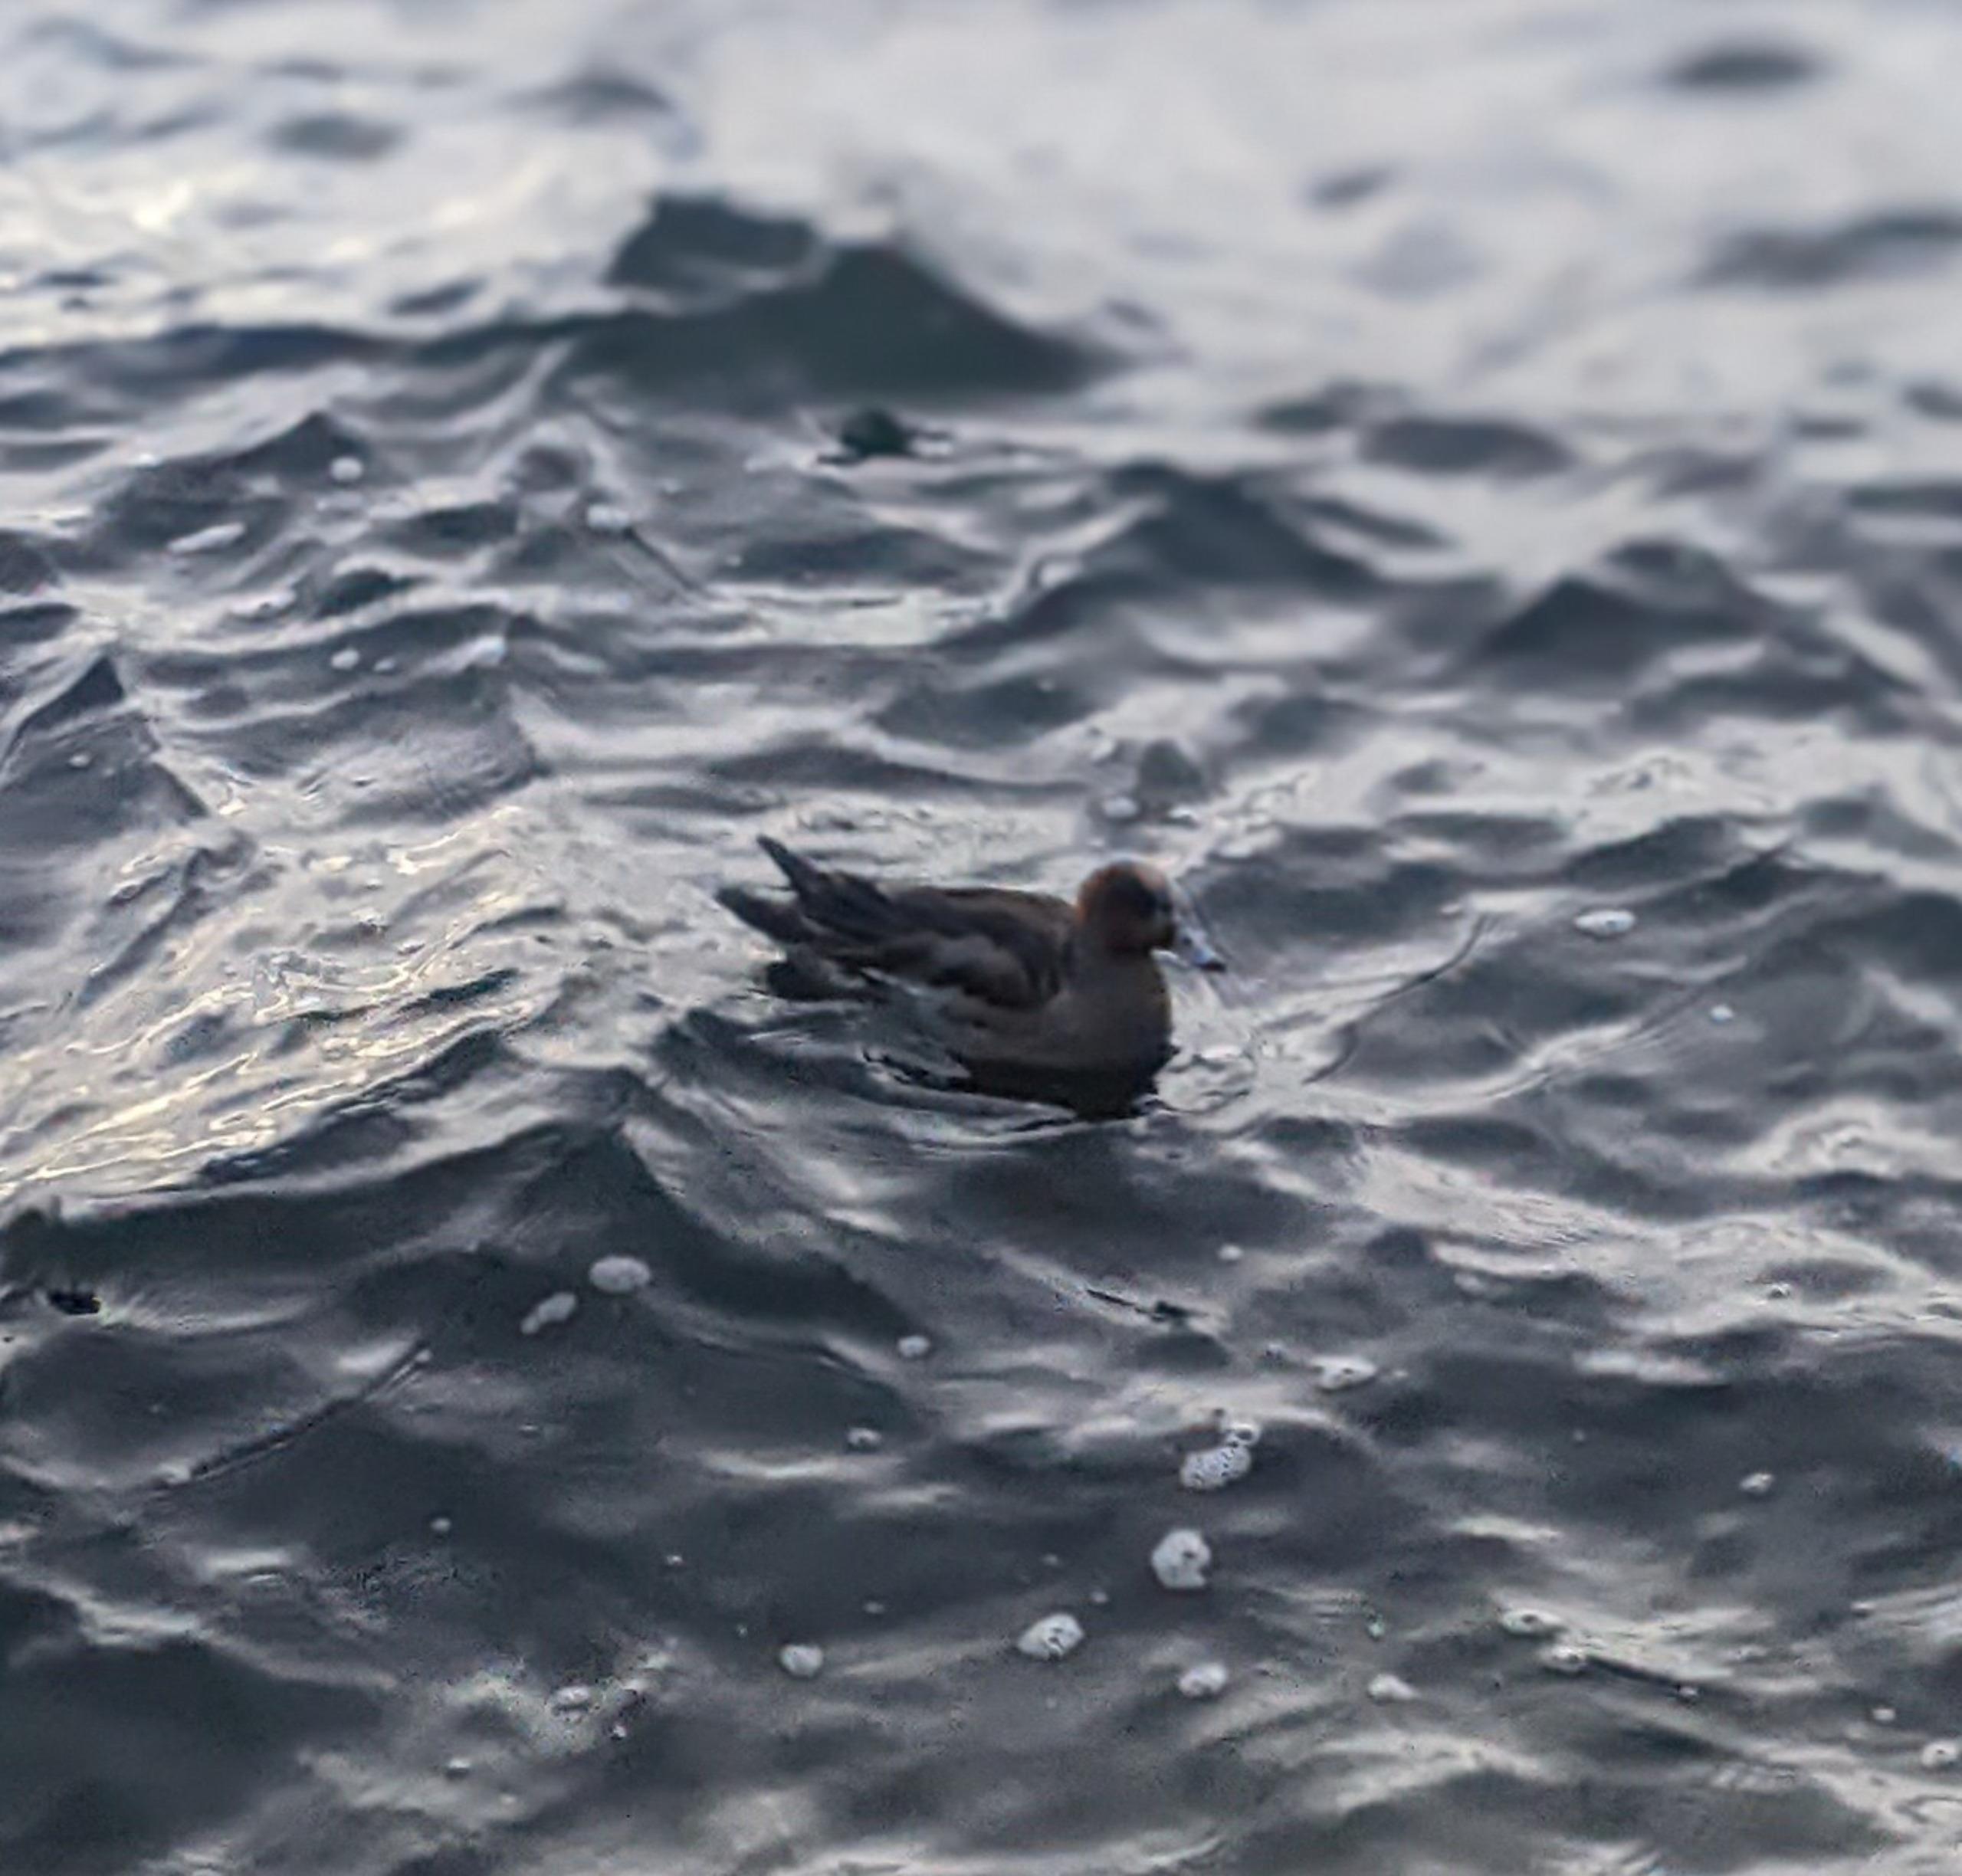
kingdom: Animalia
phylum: Chordata
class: Aves
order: Anseriformes
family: Anatidae
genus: Mareca
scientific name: Mareca penelope
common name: Pibeand
